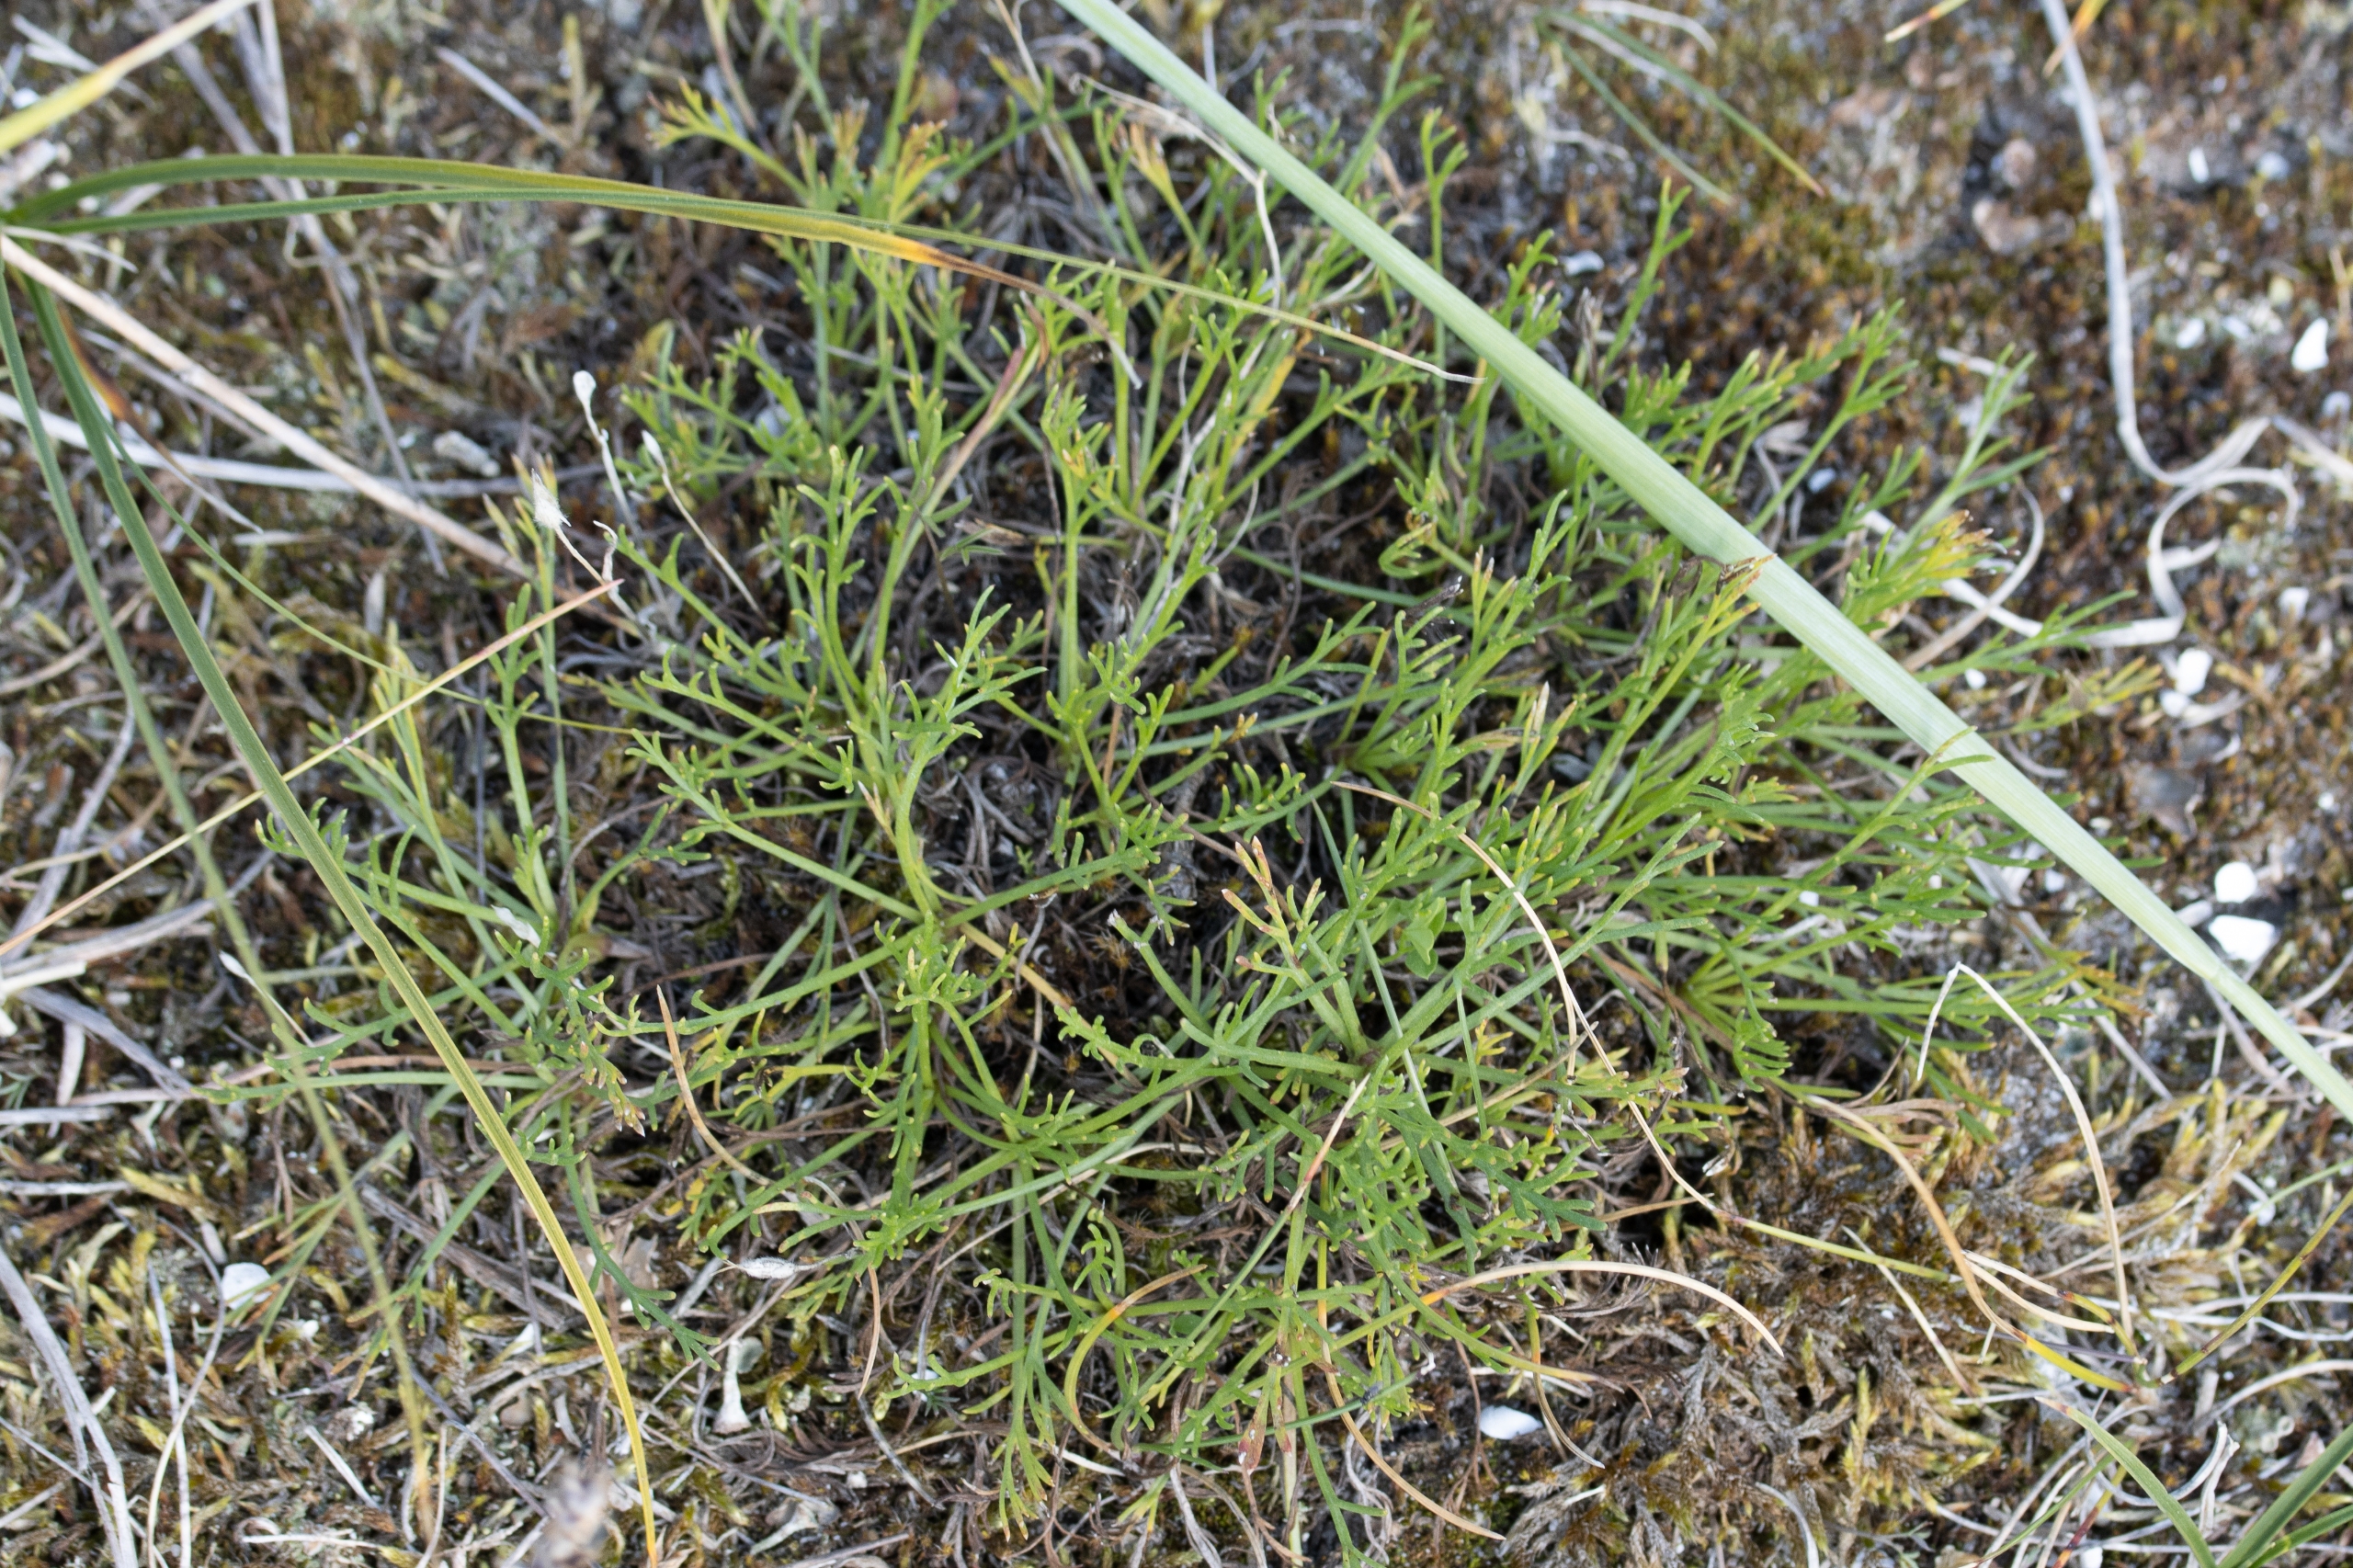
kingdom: Plantae
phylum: Tracheophyta
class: Magnoliopsida
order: Asterales
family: Asteraceae
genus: Artemisia
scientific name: Artemisia campestris
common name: Mark-bynke
